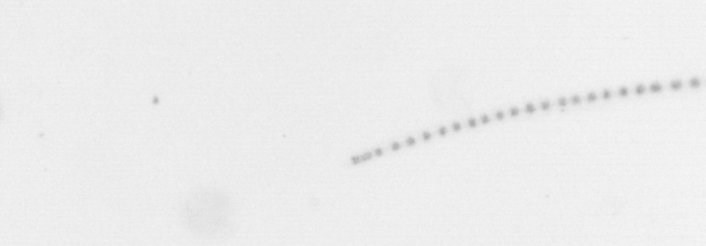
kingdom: Chromista
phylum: Ochrophyta
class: Bacillariophyceae
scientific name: Bacillariophyceae
